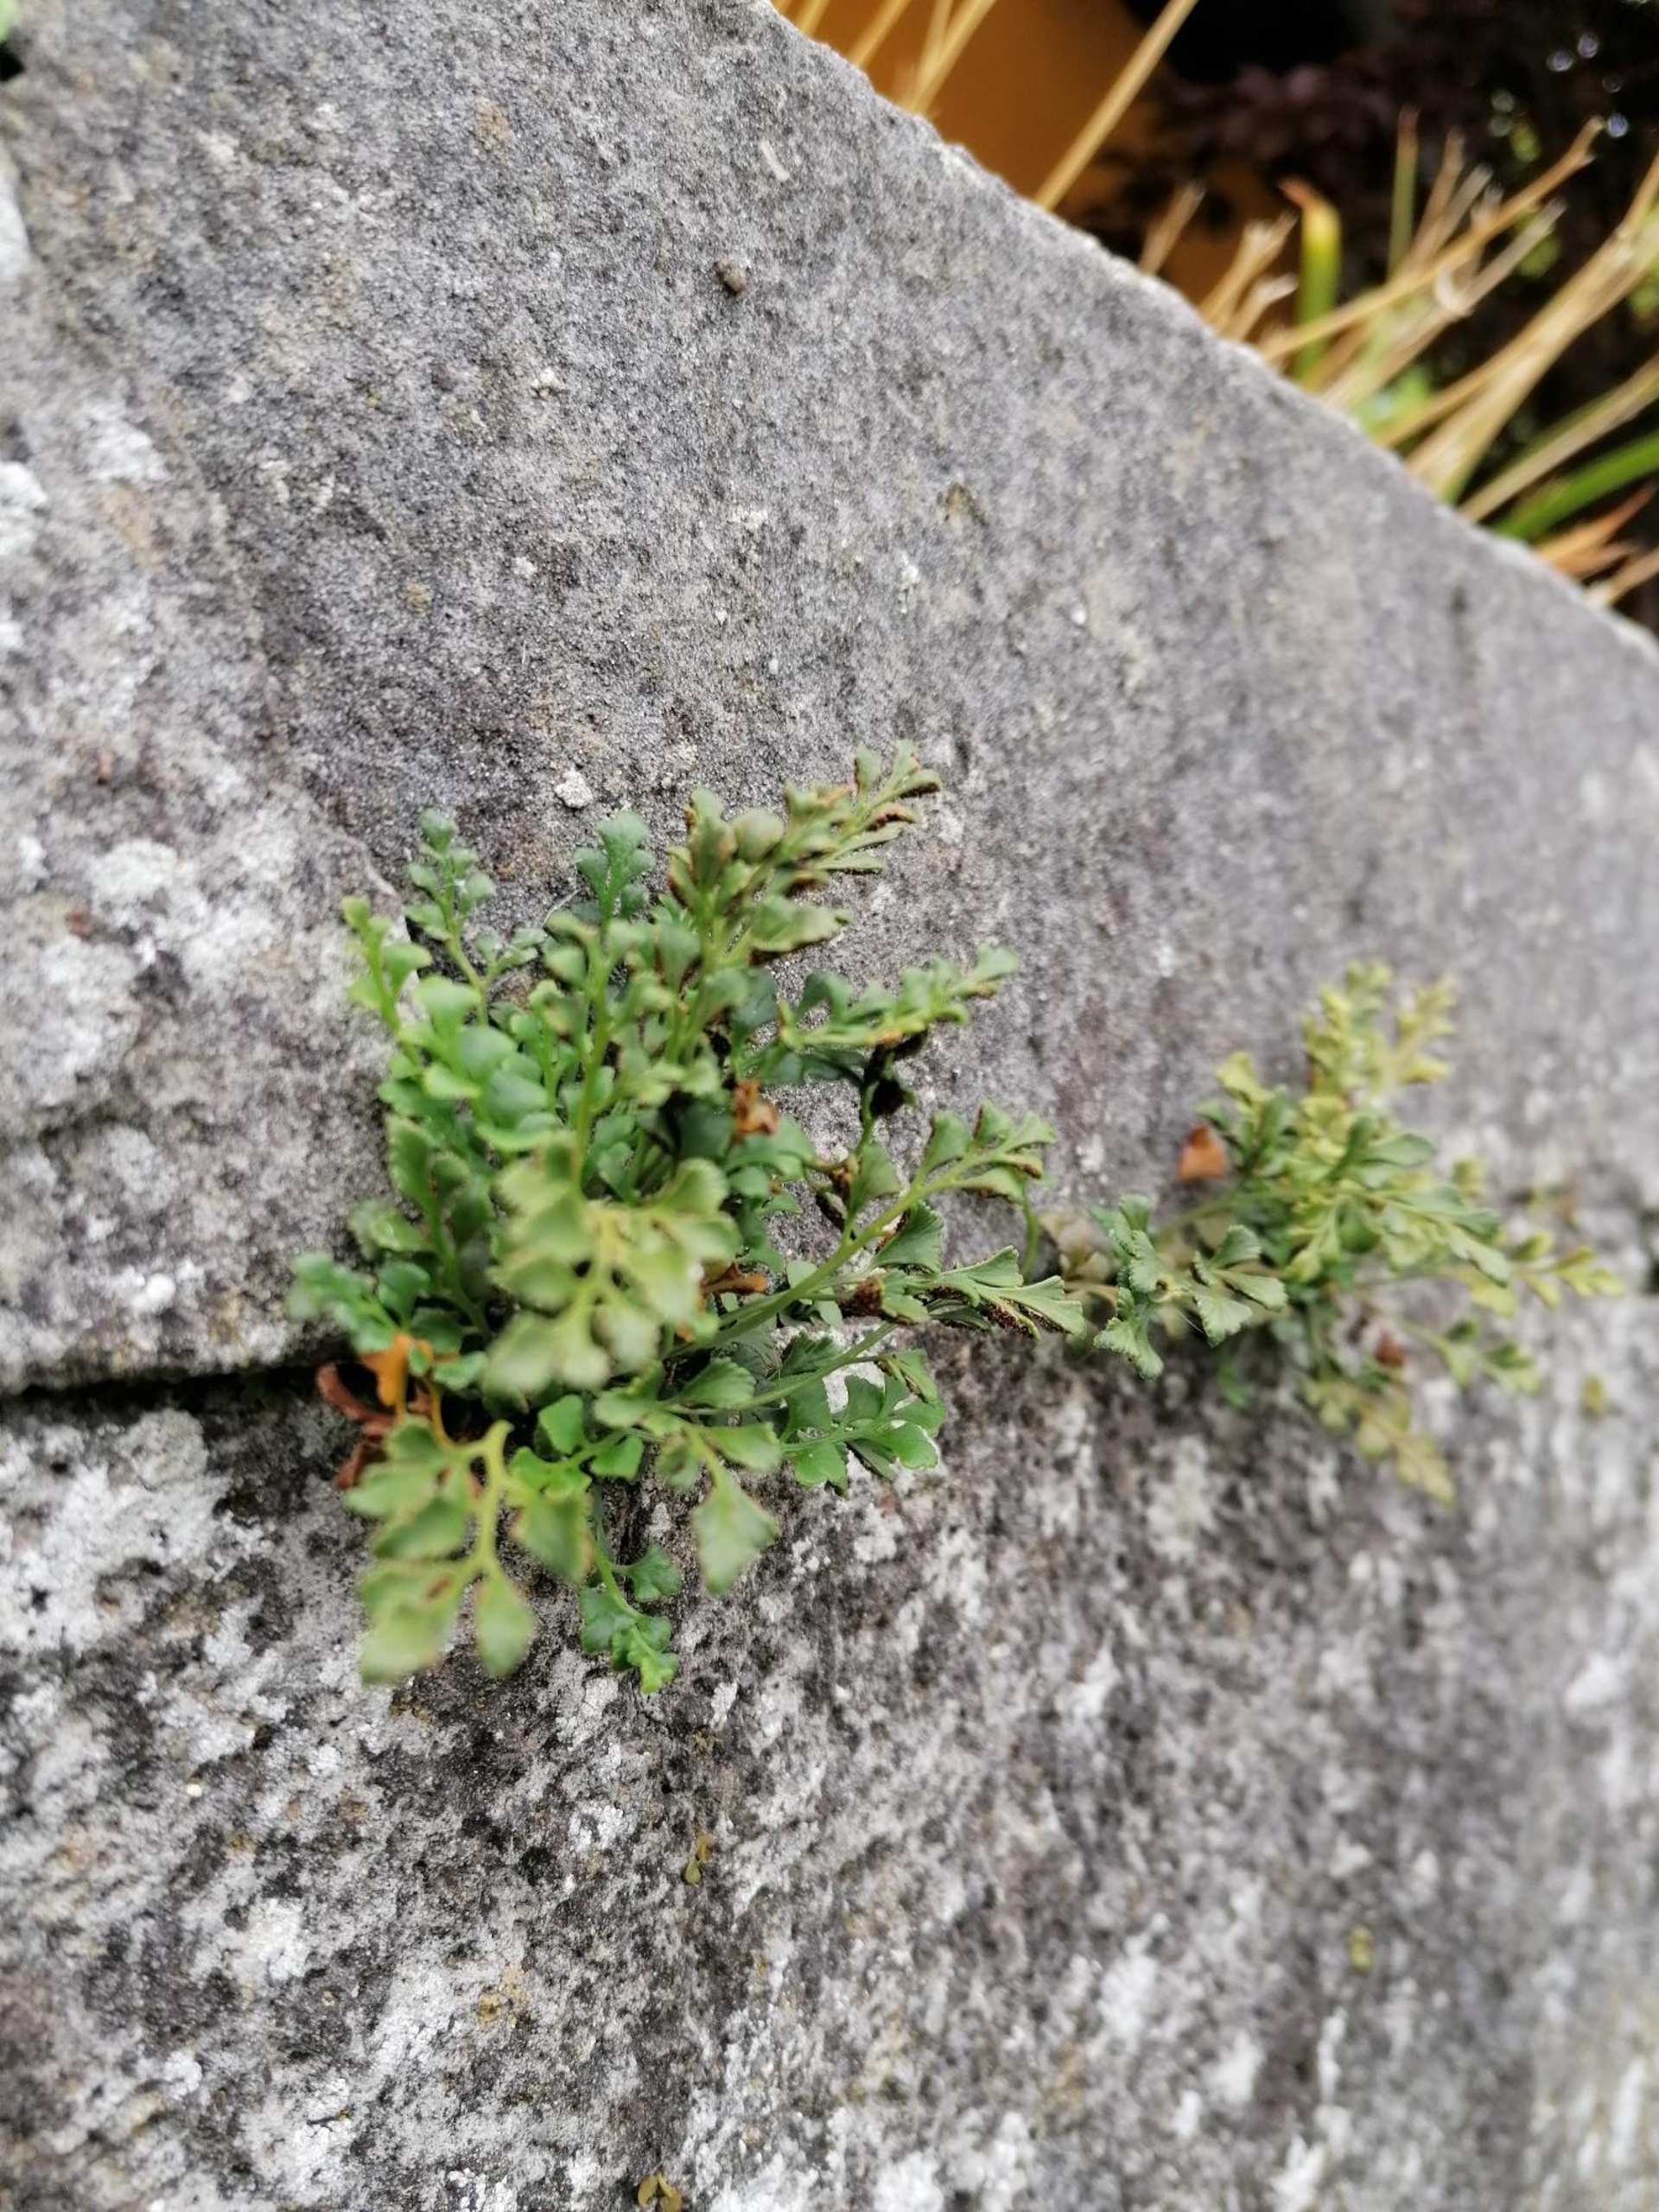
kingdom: Plantae
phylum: Tracheophyta
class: Polypodiopsida
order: Polypodiales
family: Aspleniaceae
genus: Asplenium
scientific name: Asplenium ruta-muraria
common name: Murrude
